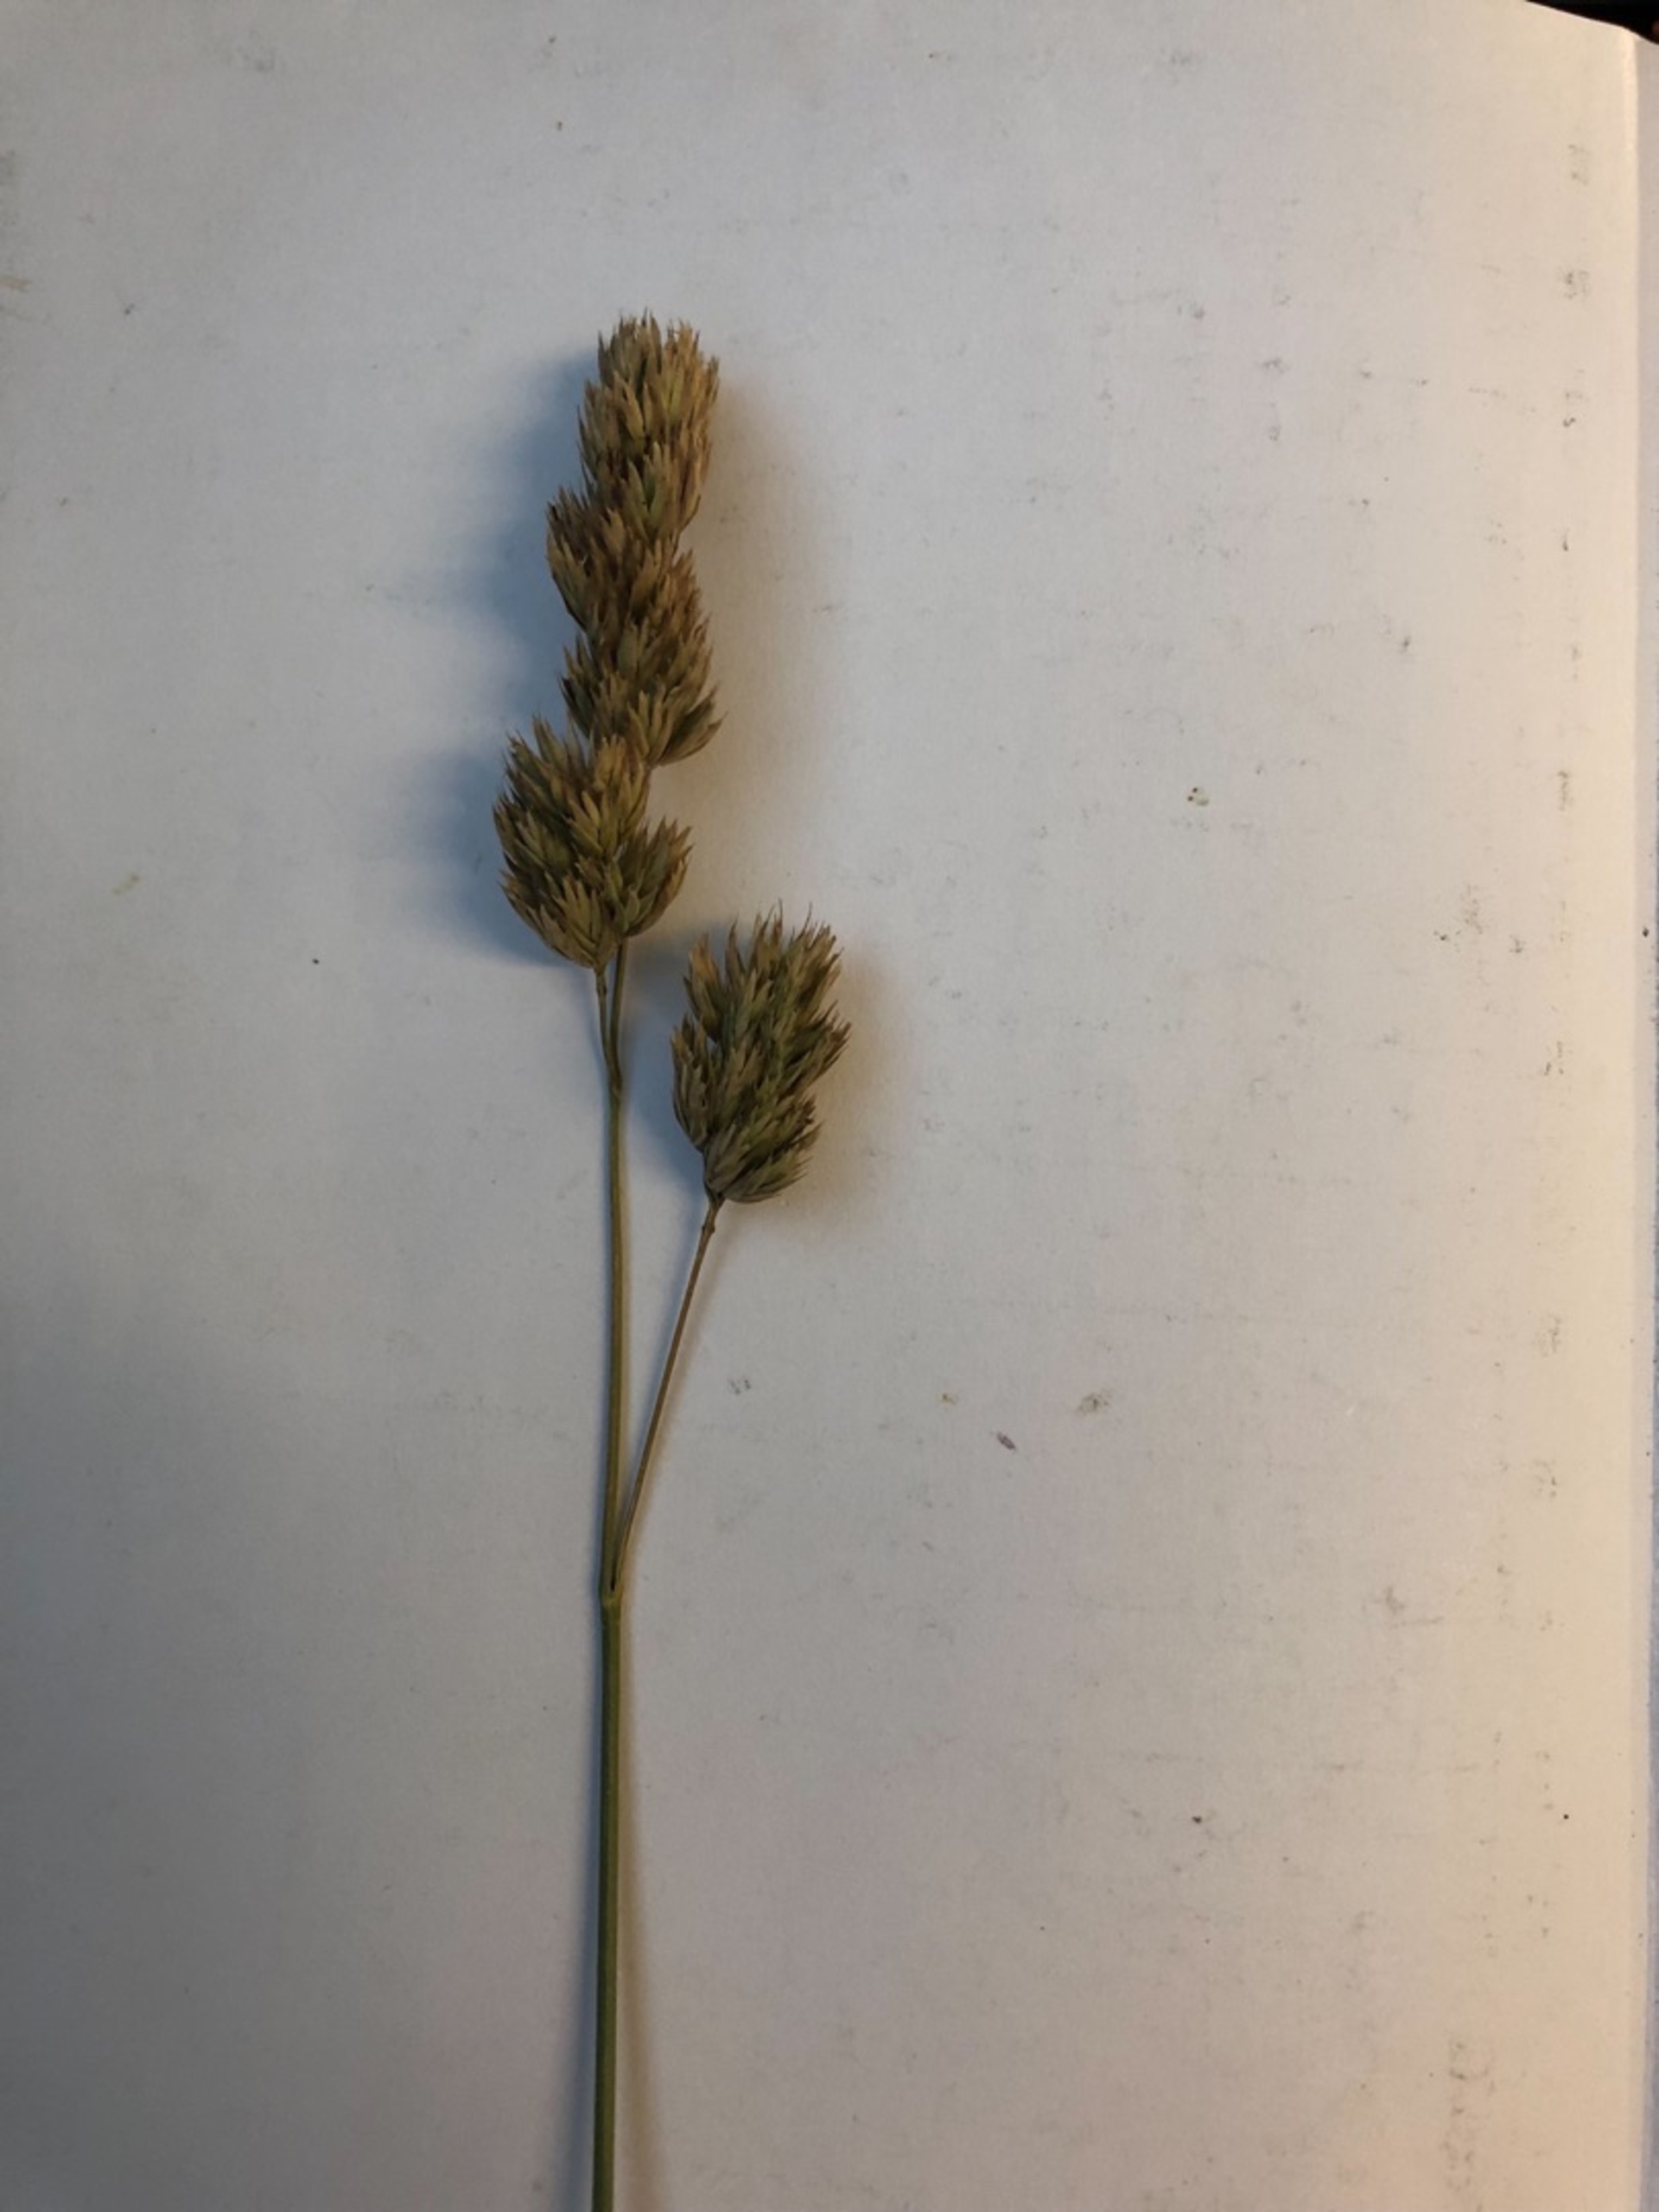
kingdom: Plantae
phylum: Tracheophyta
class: Liliopsida
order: Poales
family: Poaceae
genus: Dactylis
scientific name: Dactylis glomerata
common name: Almindelig hundegræs
